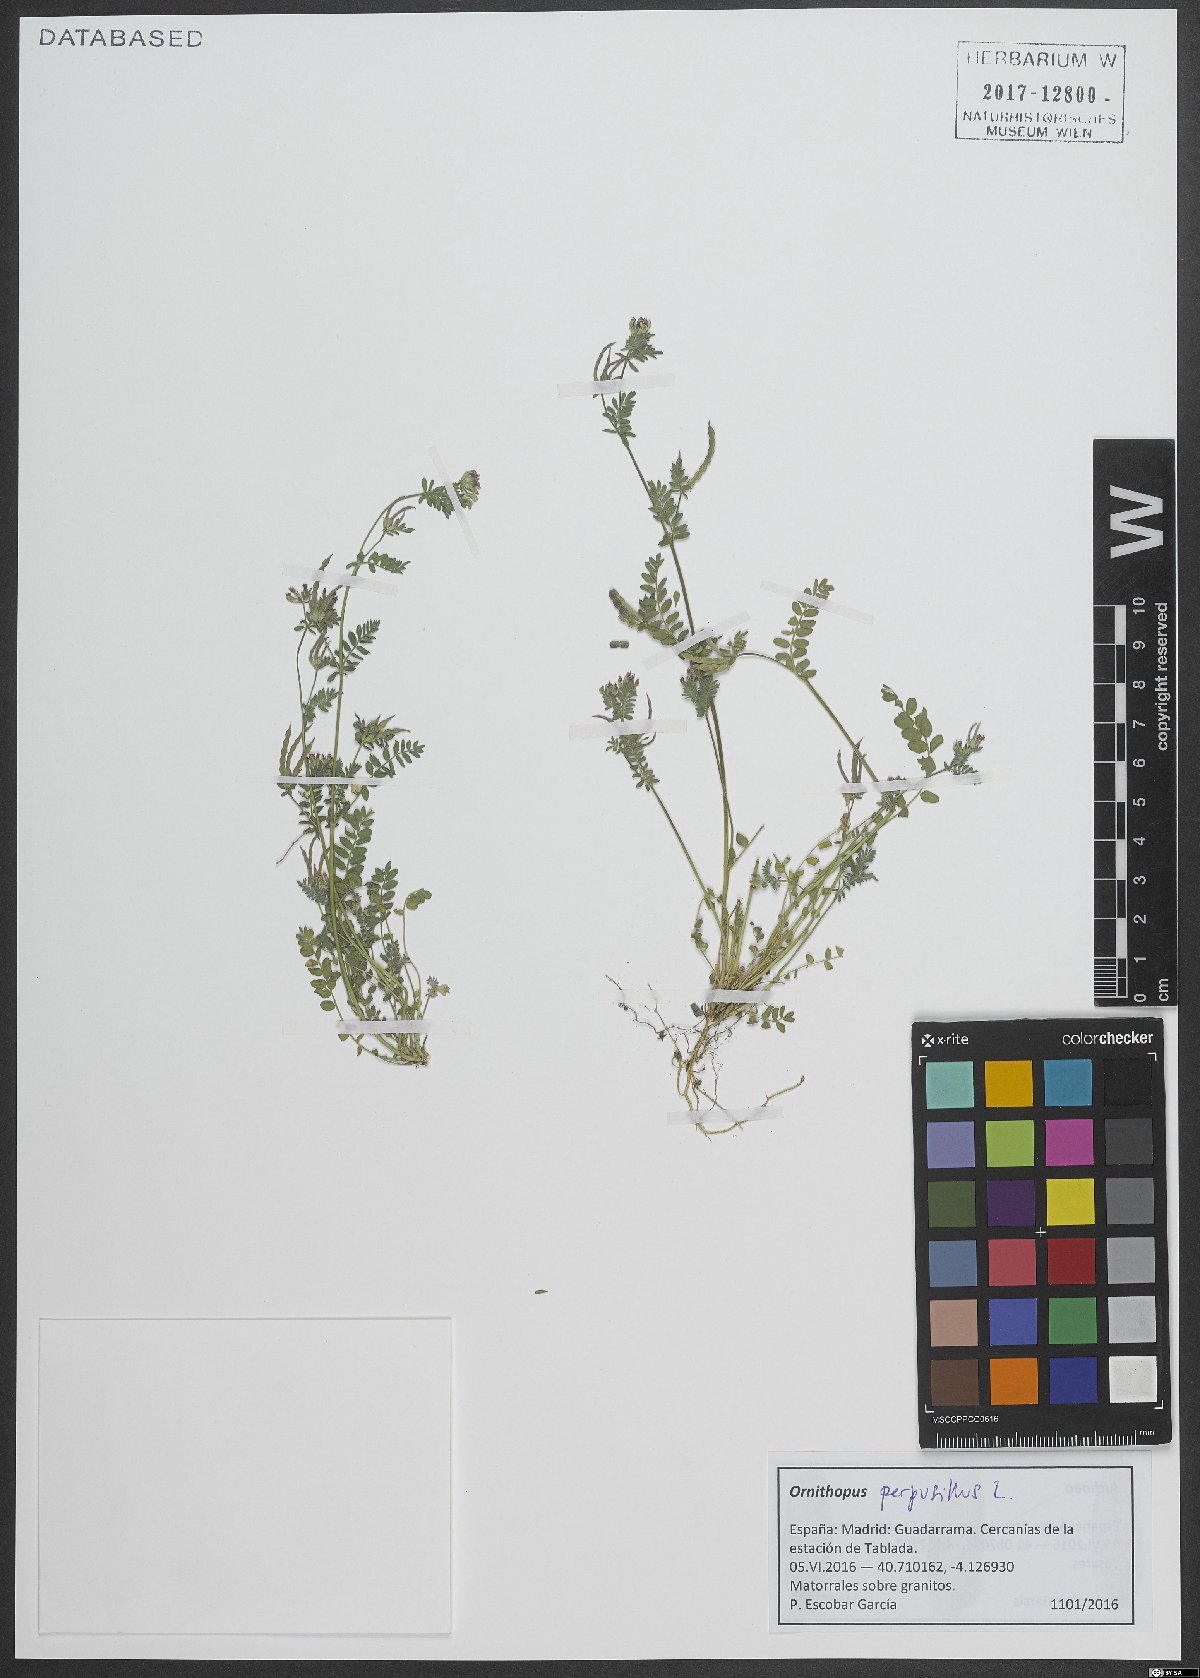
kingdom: Plantae
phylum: Tracheophyta
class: Magnoliopsida
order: Fabales
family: Fabaceae
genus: Ornithopus
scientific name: Ornithopus perpusillus
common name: Bird's-foot
